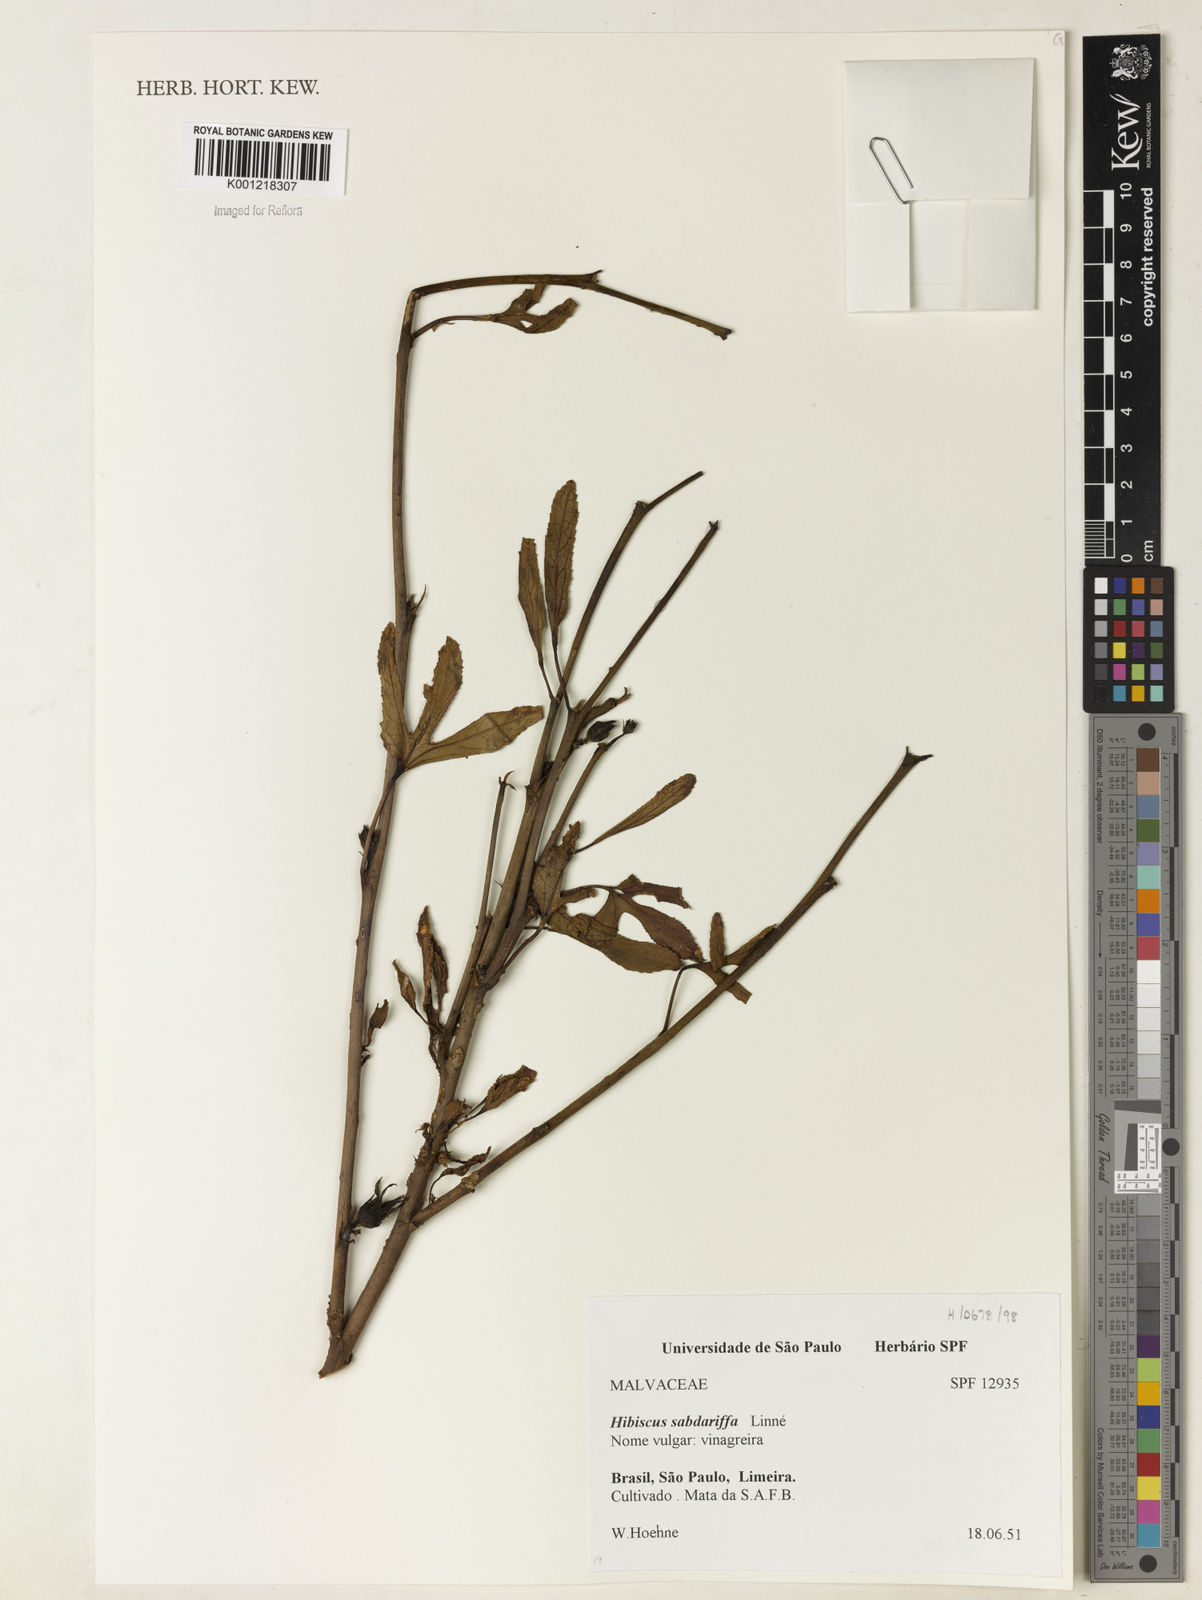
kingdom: Plantae
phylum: Tracheophyta
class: Magnoliopsida
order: Malvales
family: Malvaceae
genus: Hibiscus
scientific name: Hibiscus sabdariffa
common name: Roselle
